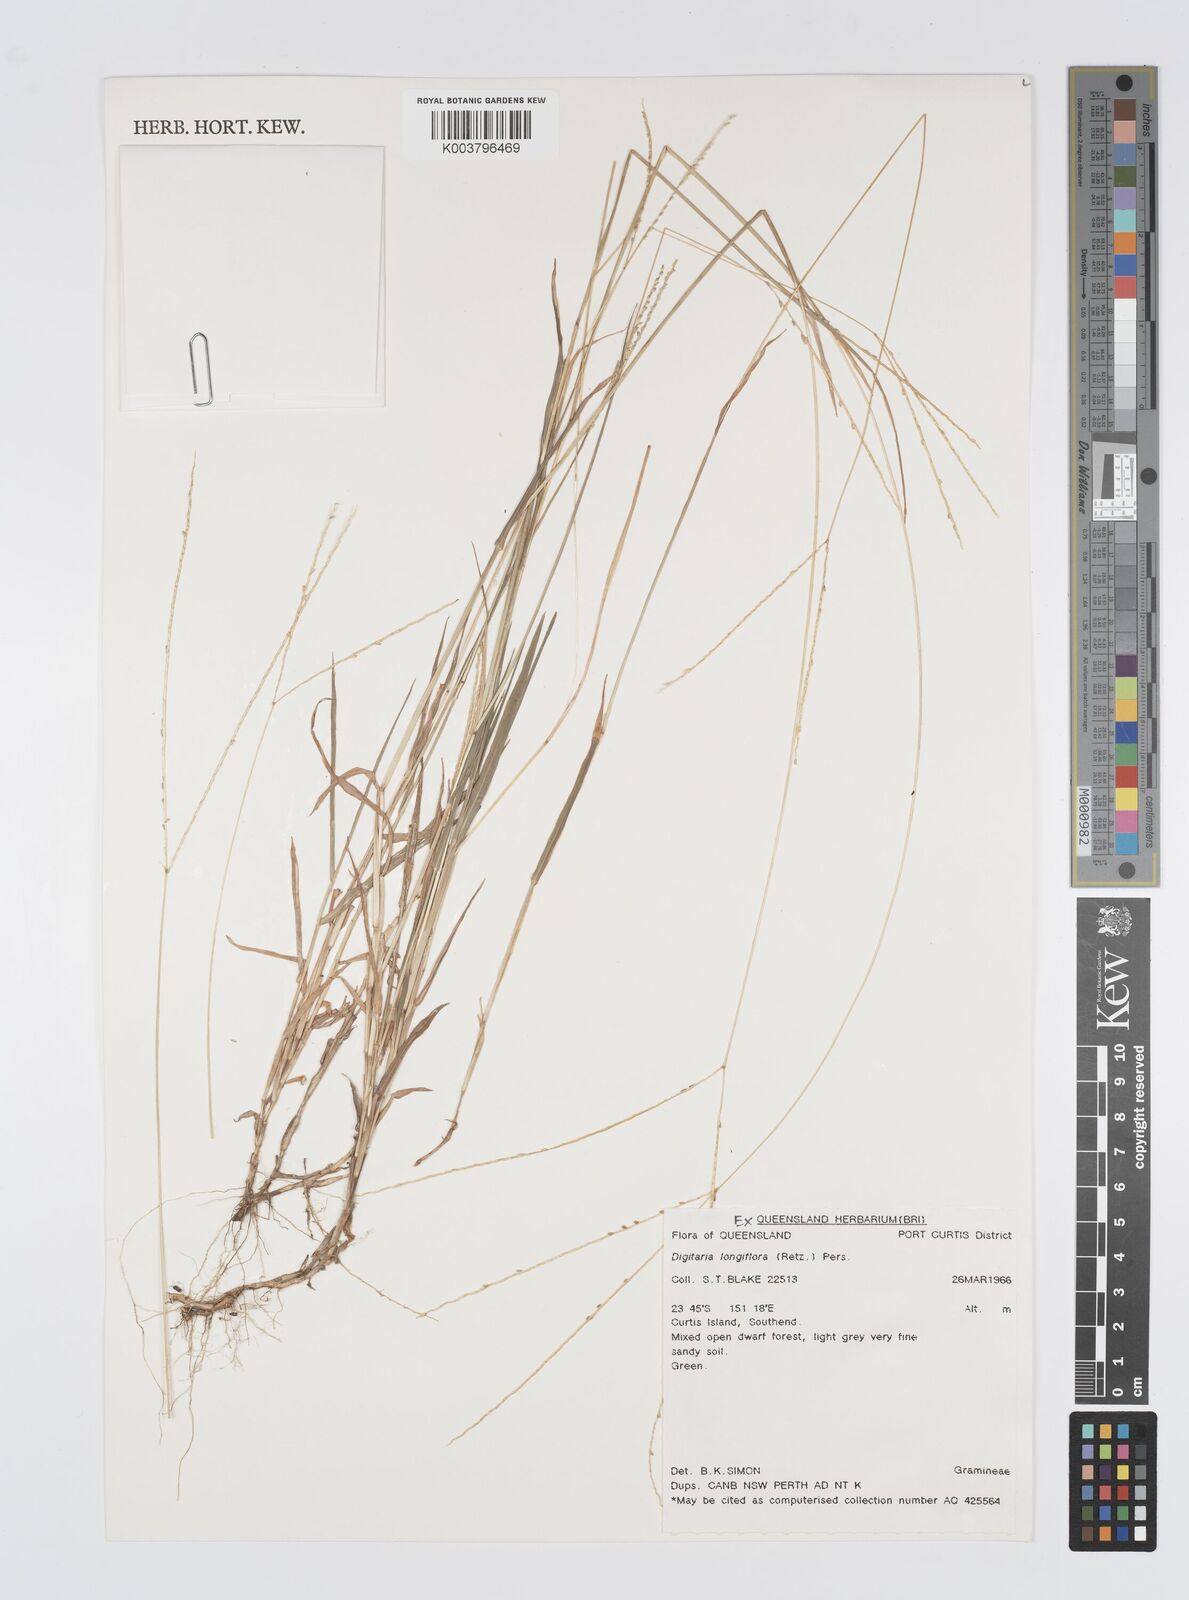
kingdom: Plantae
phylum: Tracheophyta
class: Liliopsida
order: Poales
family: Poaceae
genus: Digitaria
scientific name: Digitaria longiflora
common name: Wire crabgrass
